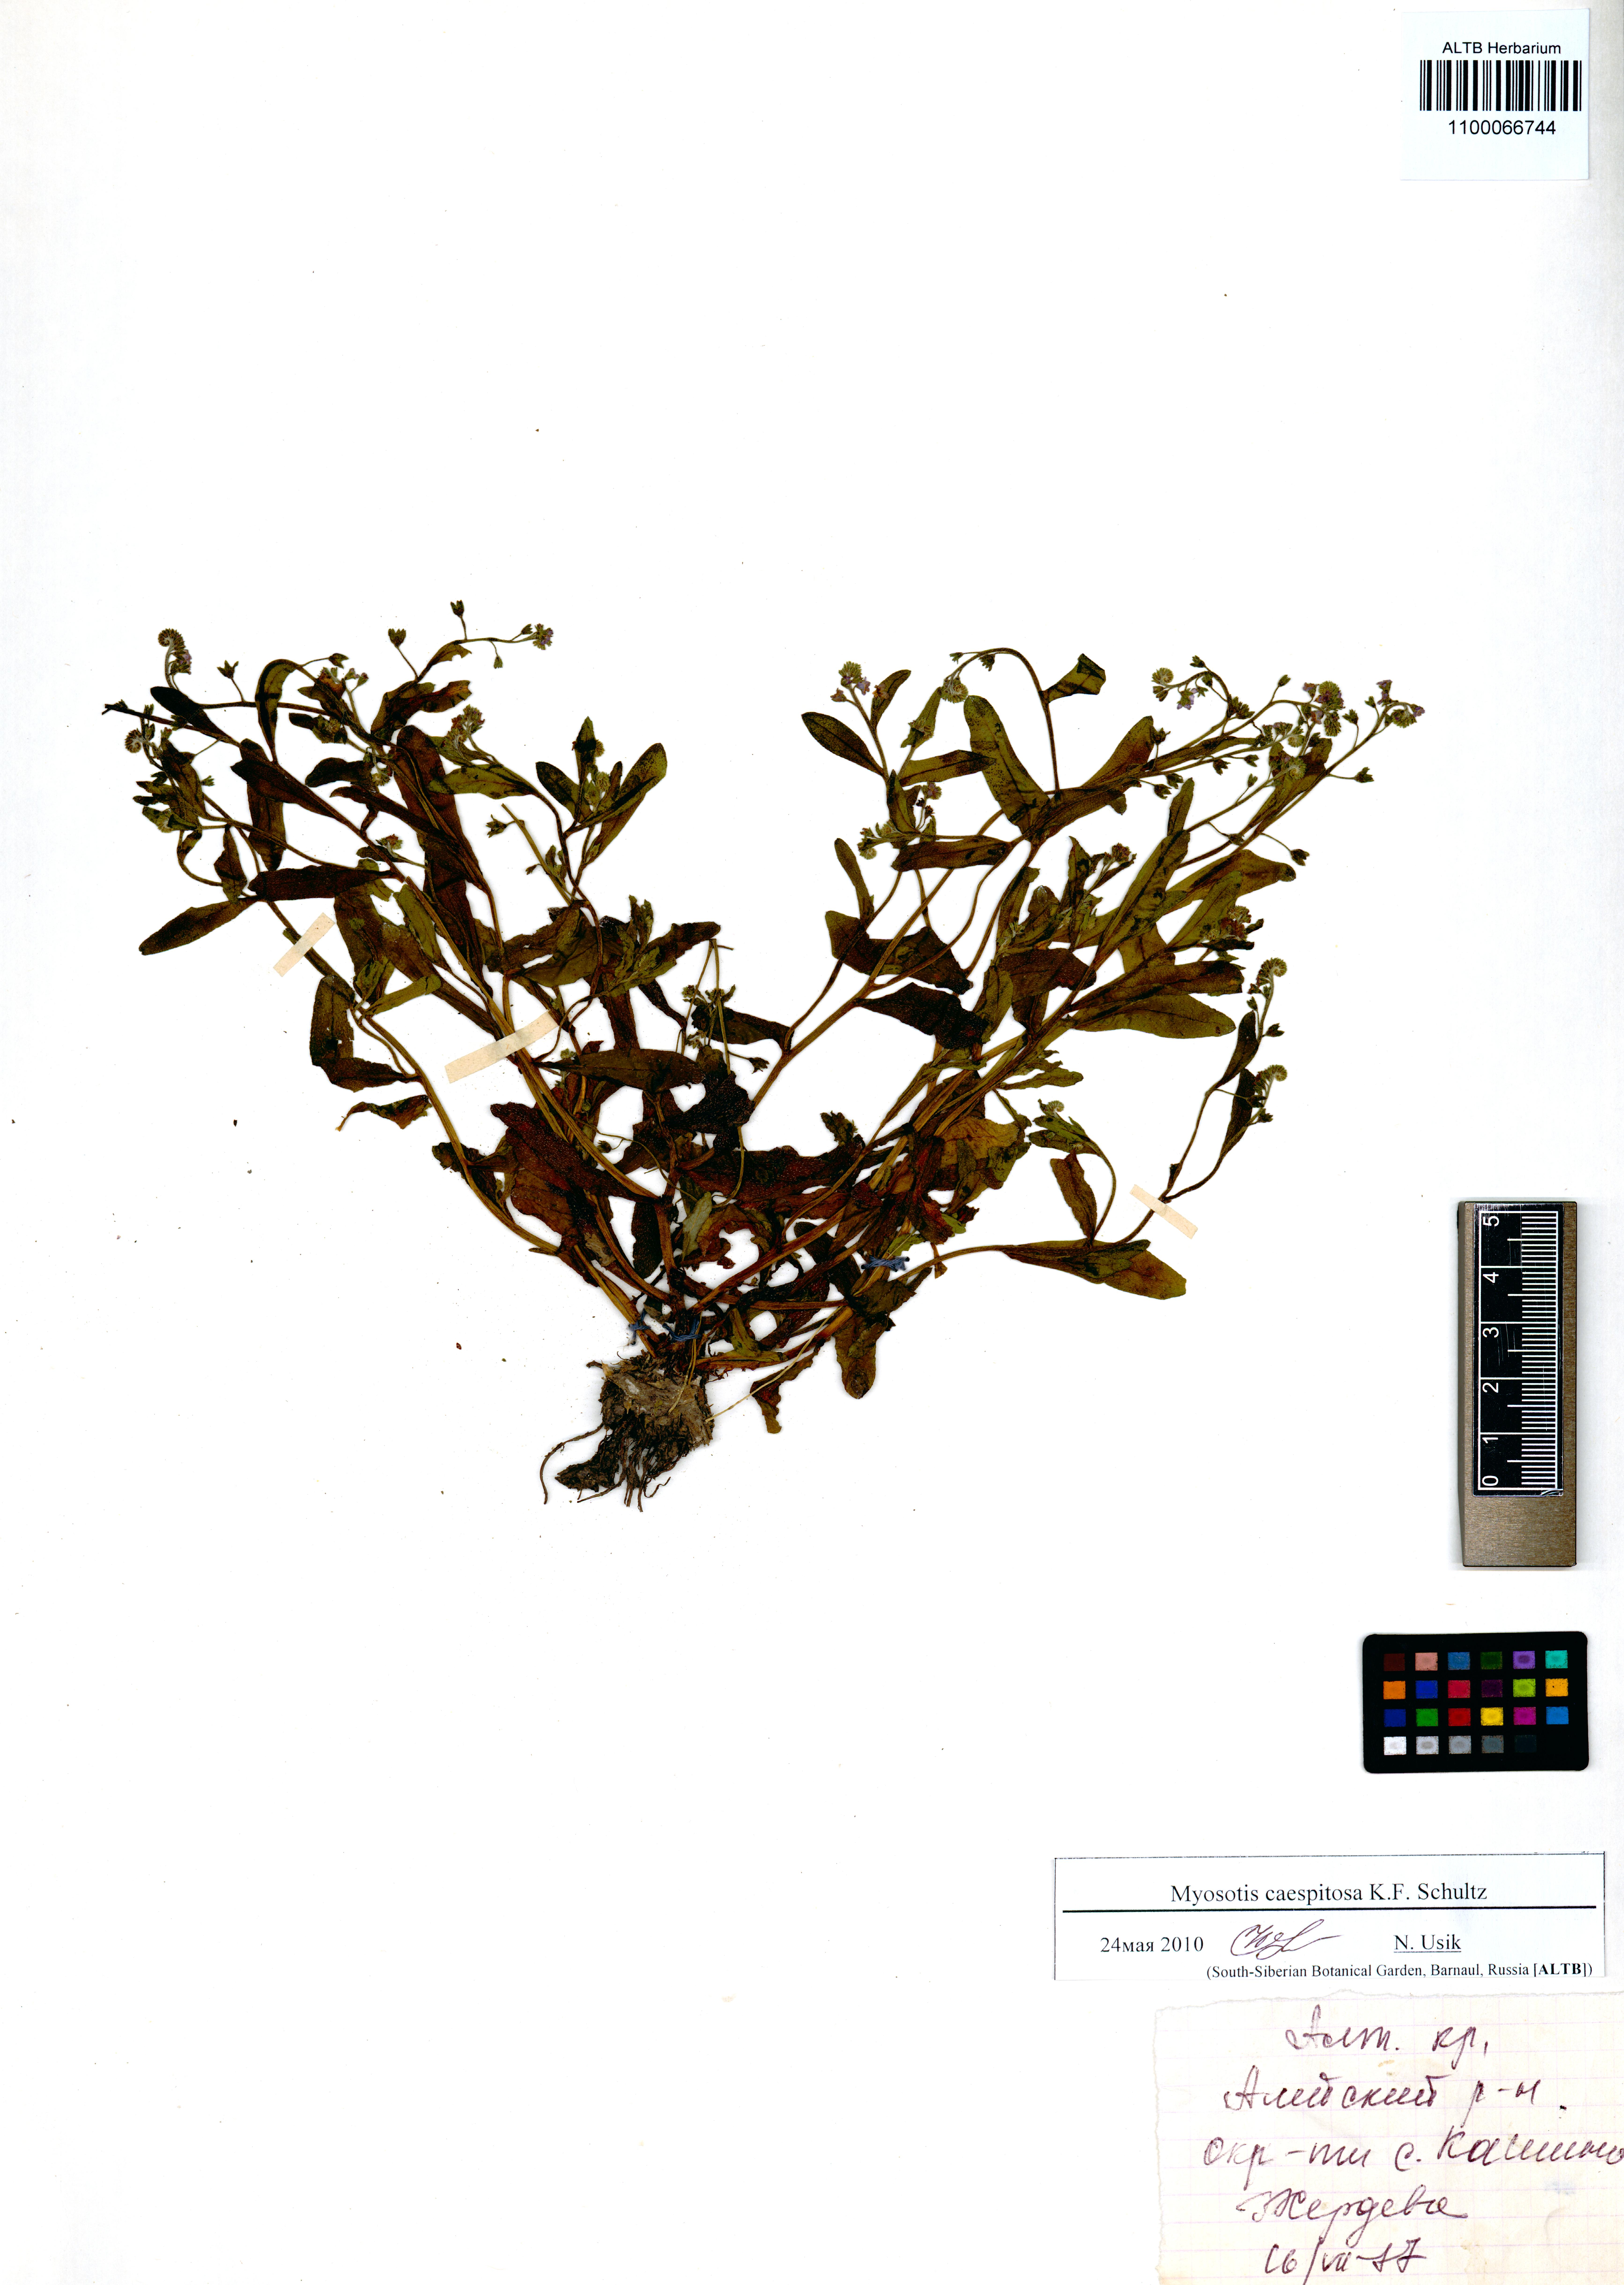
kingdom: Plantae
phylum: Tracheophyta
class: Magnoliopsida
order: Boraginales
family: Boraginaceae
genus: Myosotis
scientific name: Myosotis laxa
